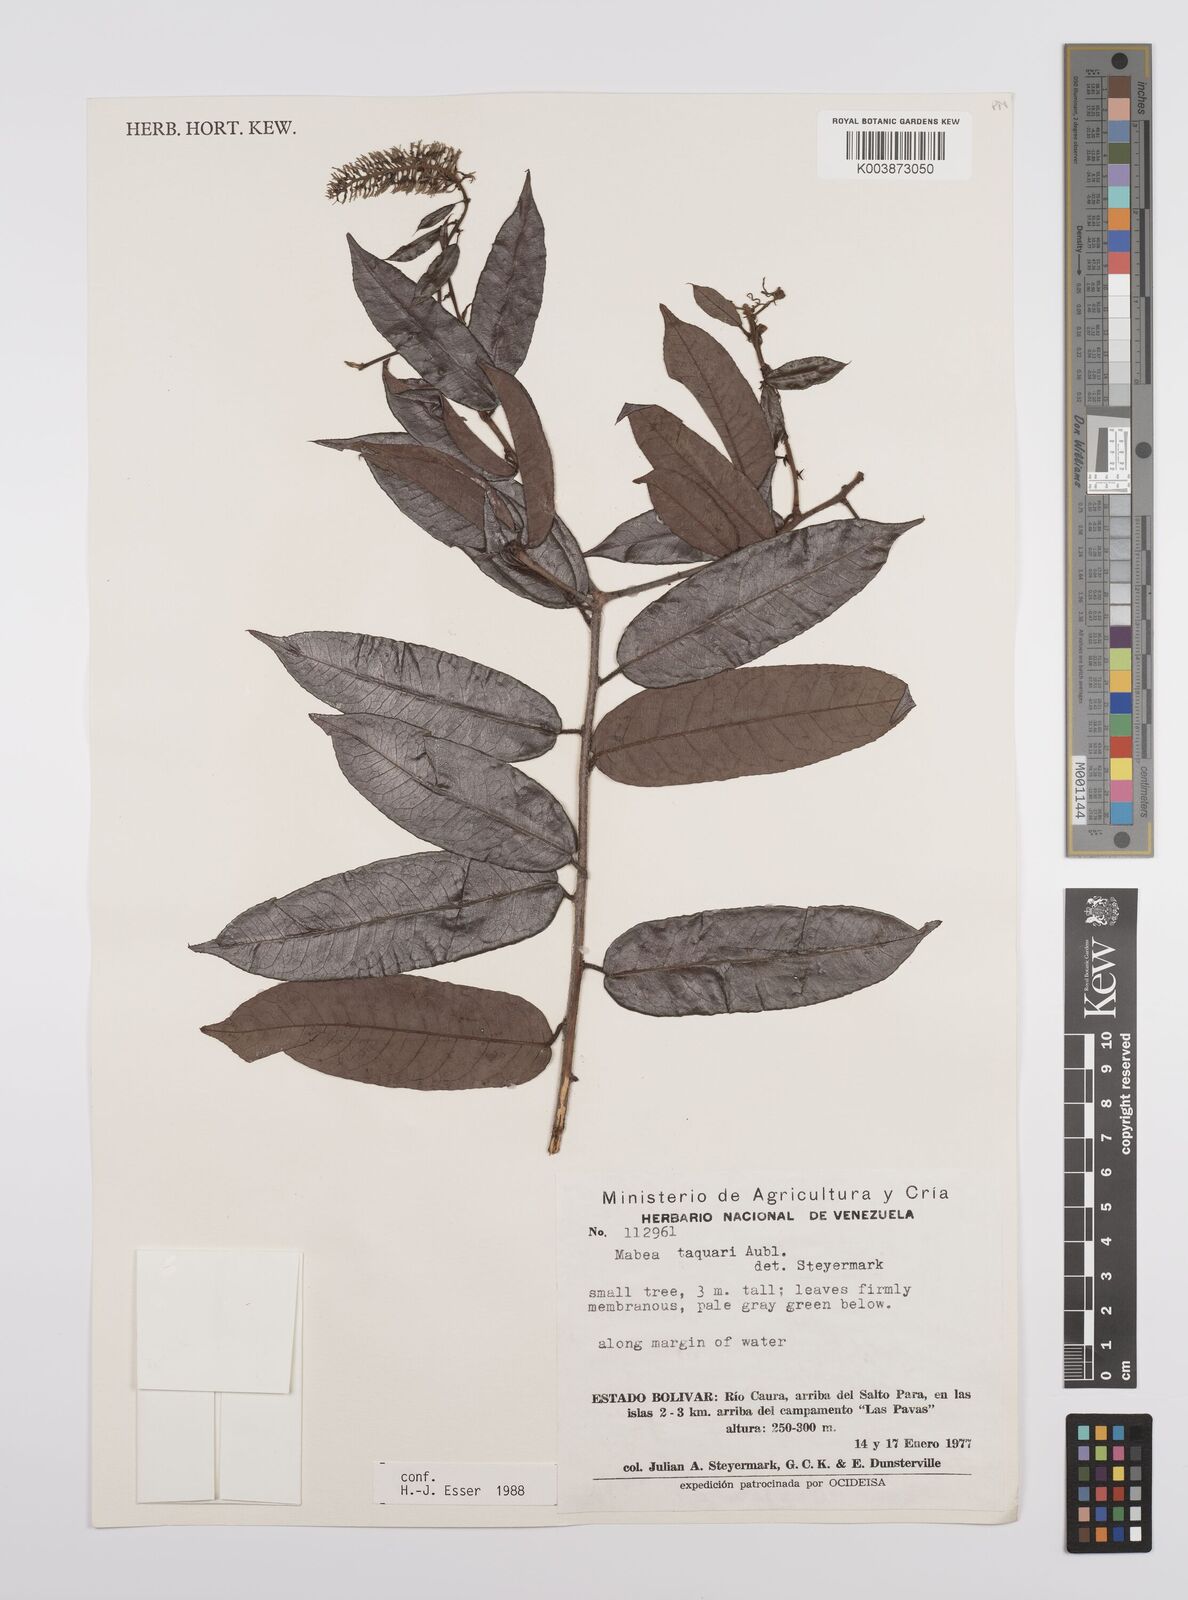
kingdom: Plantae
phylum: Tracheophyta
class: Magnoliopsida
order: Malpighiales
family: Euphorbiaceae
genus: Mabea
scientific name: Mabea taquari
